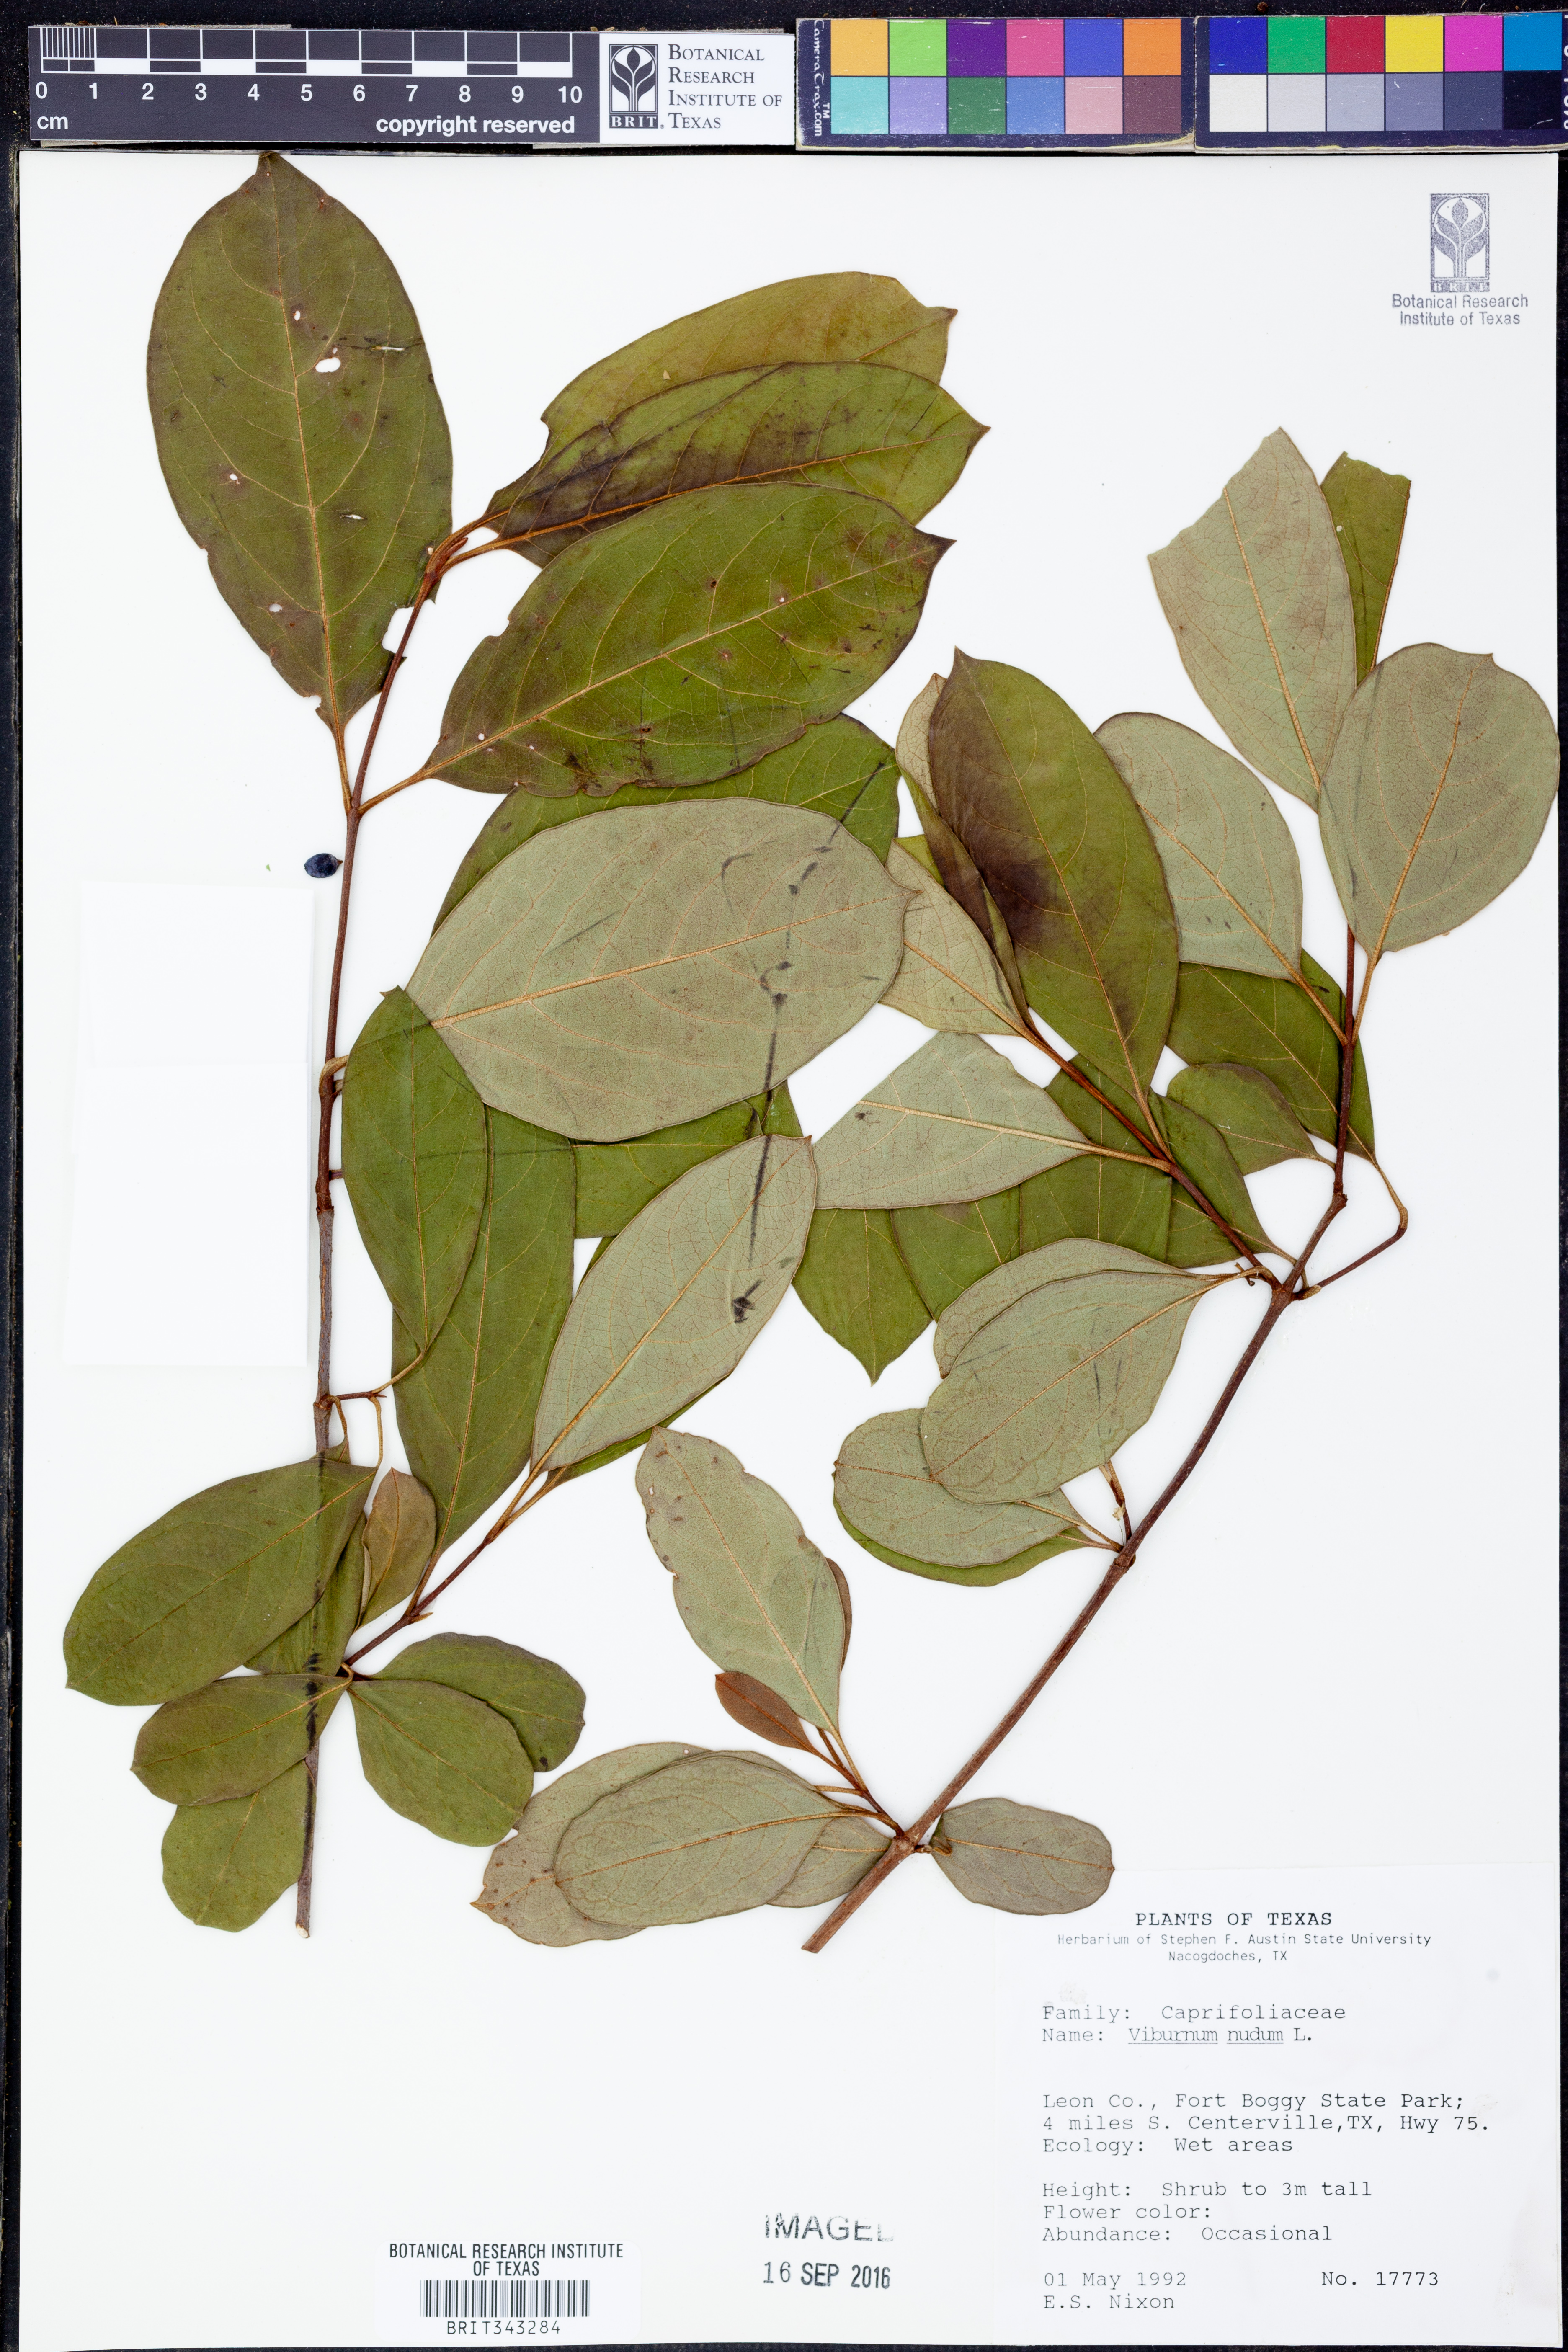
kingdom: Plantae
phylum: Tracheophyta
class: Magnoliopsida
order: Dipsacales
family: Viburnaceae
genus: Viburnum
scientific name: Viburnum nudum
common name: Possum haw
